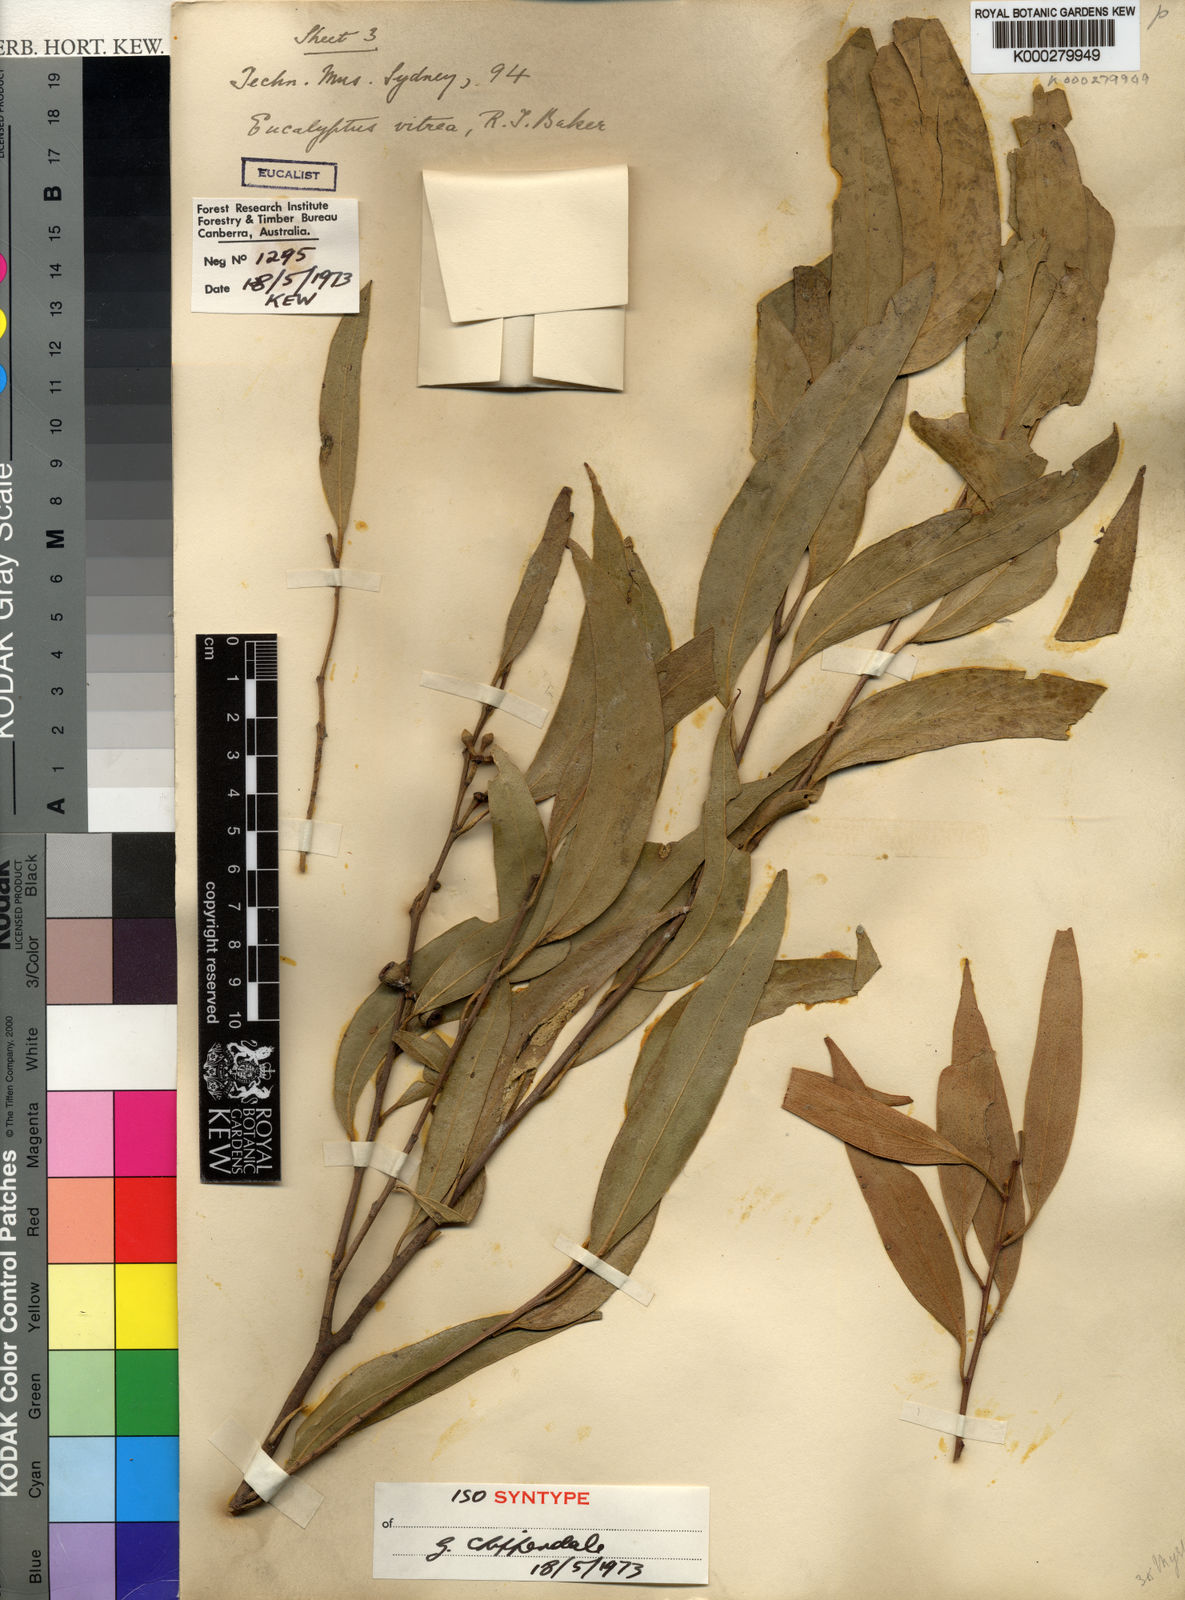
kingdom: Plantae
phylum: Tracheophyta
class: Magnoliopsida
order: Myrtales
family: Myrtaceae
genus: Eucalyptus
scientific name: Eucalyptus vitrea
